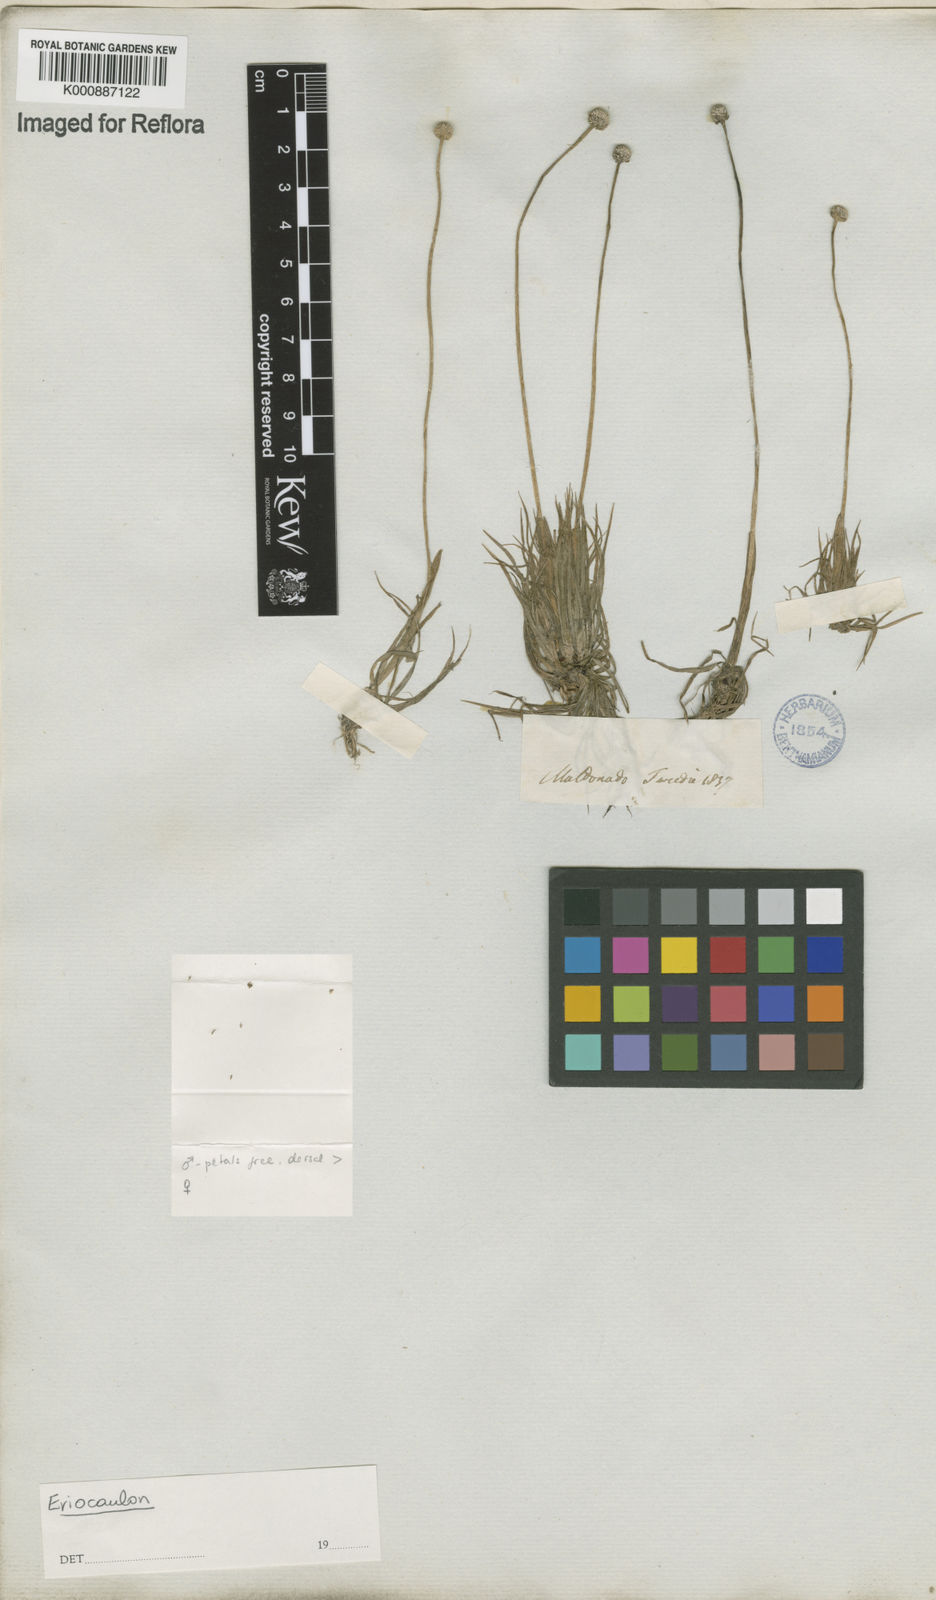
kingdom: Plantae
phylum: Tracheophyta
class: Liliopsida
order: Poales
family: Eriocaulaceae
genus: Eriocaulon
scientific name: Eriocaulon
